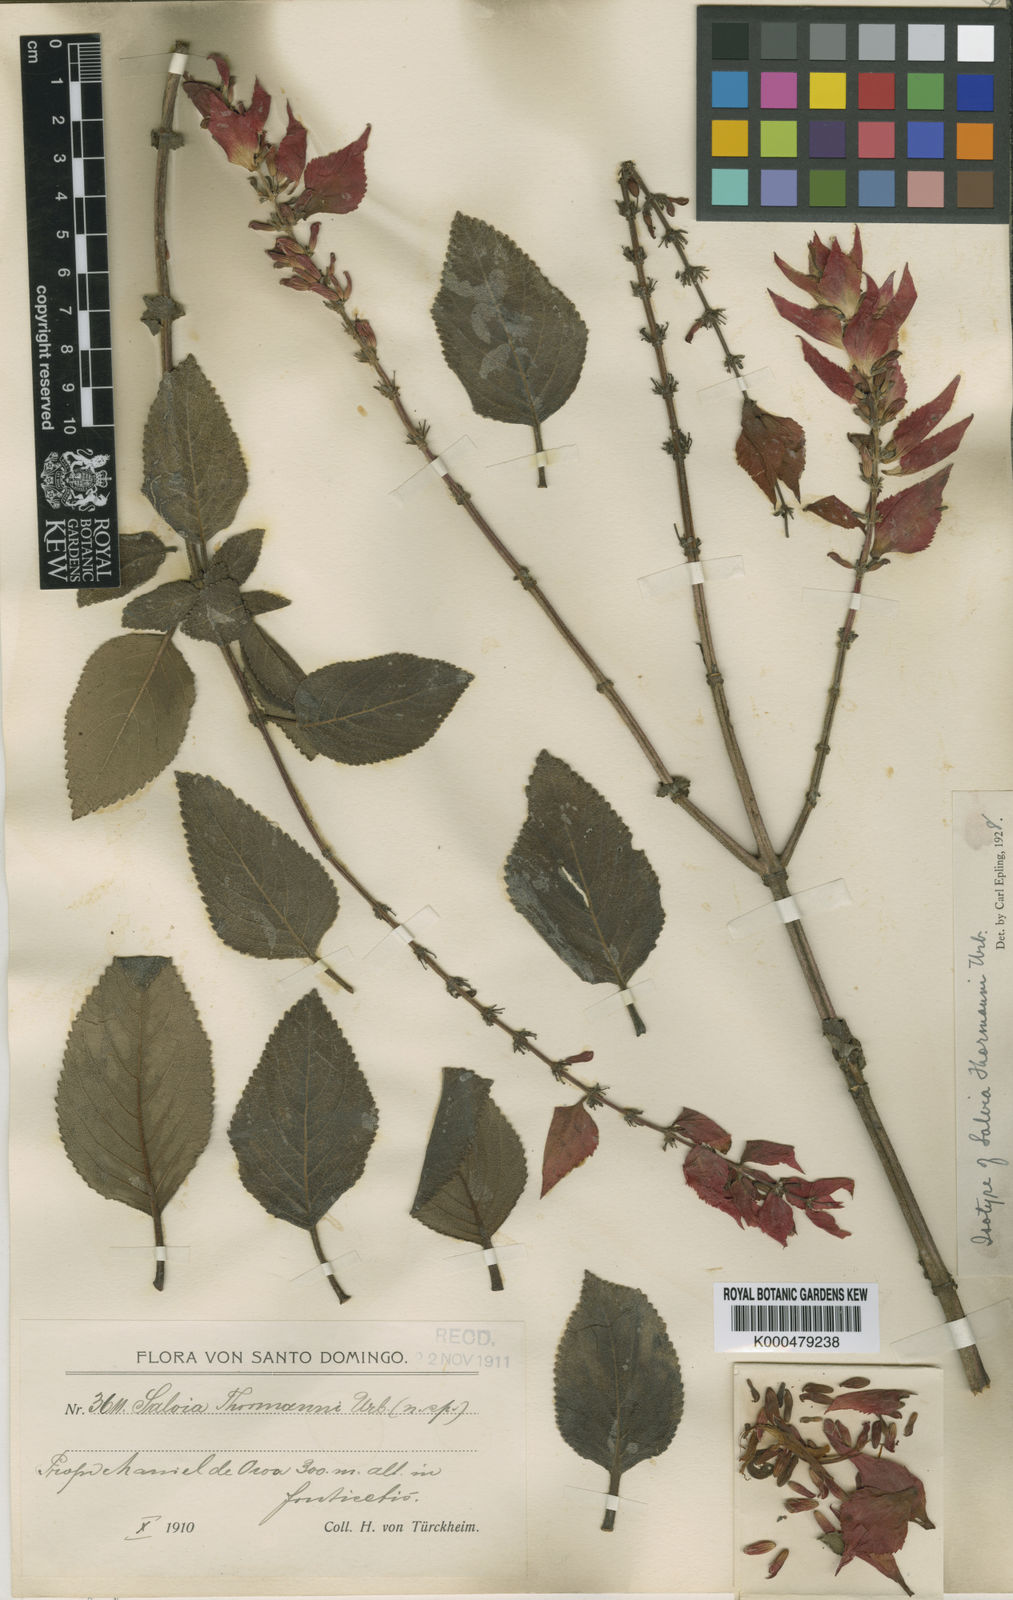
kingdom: Plantae
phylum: Tracheophyta
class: Magnoliopsida
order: Lamiales
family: Lamiaceae
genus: Salvia
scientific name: Salvia thormannii
